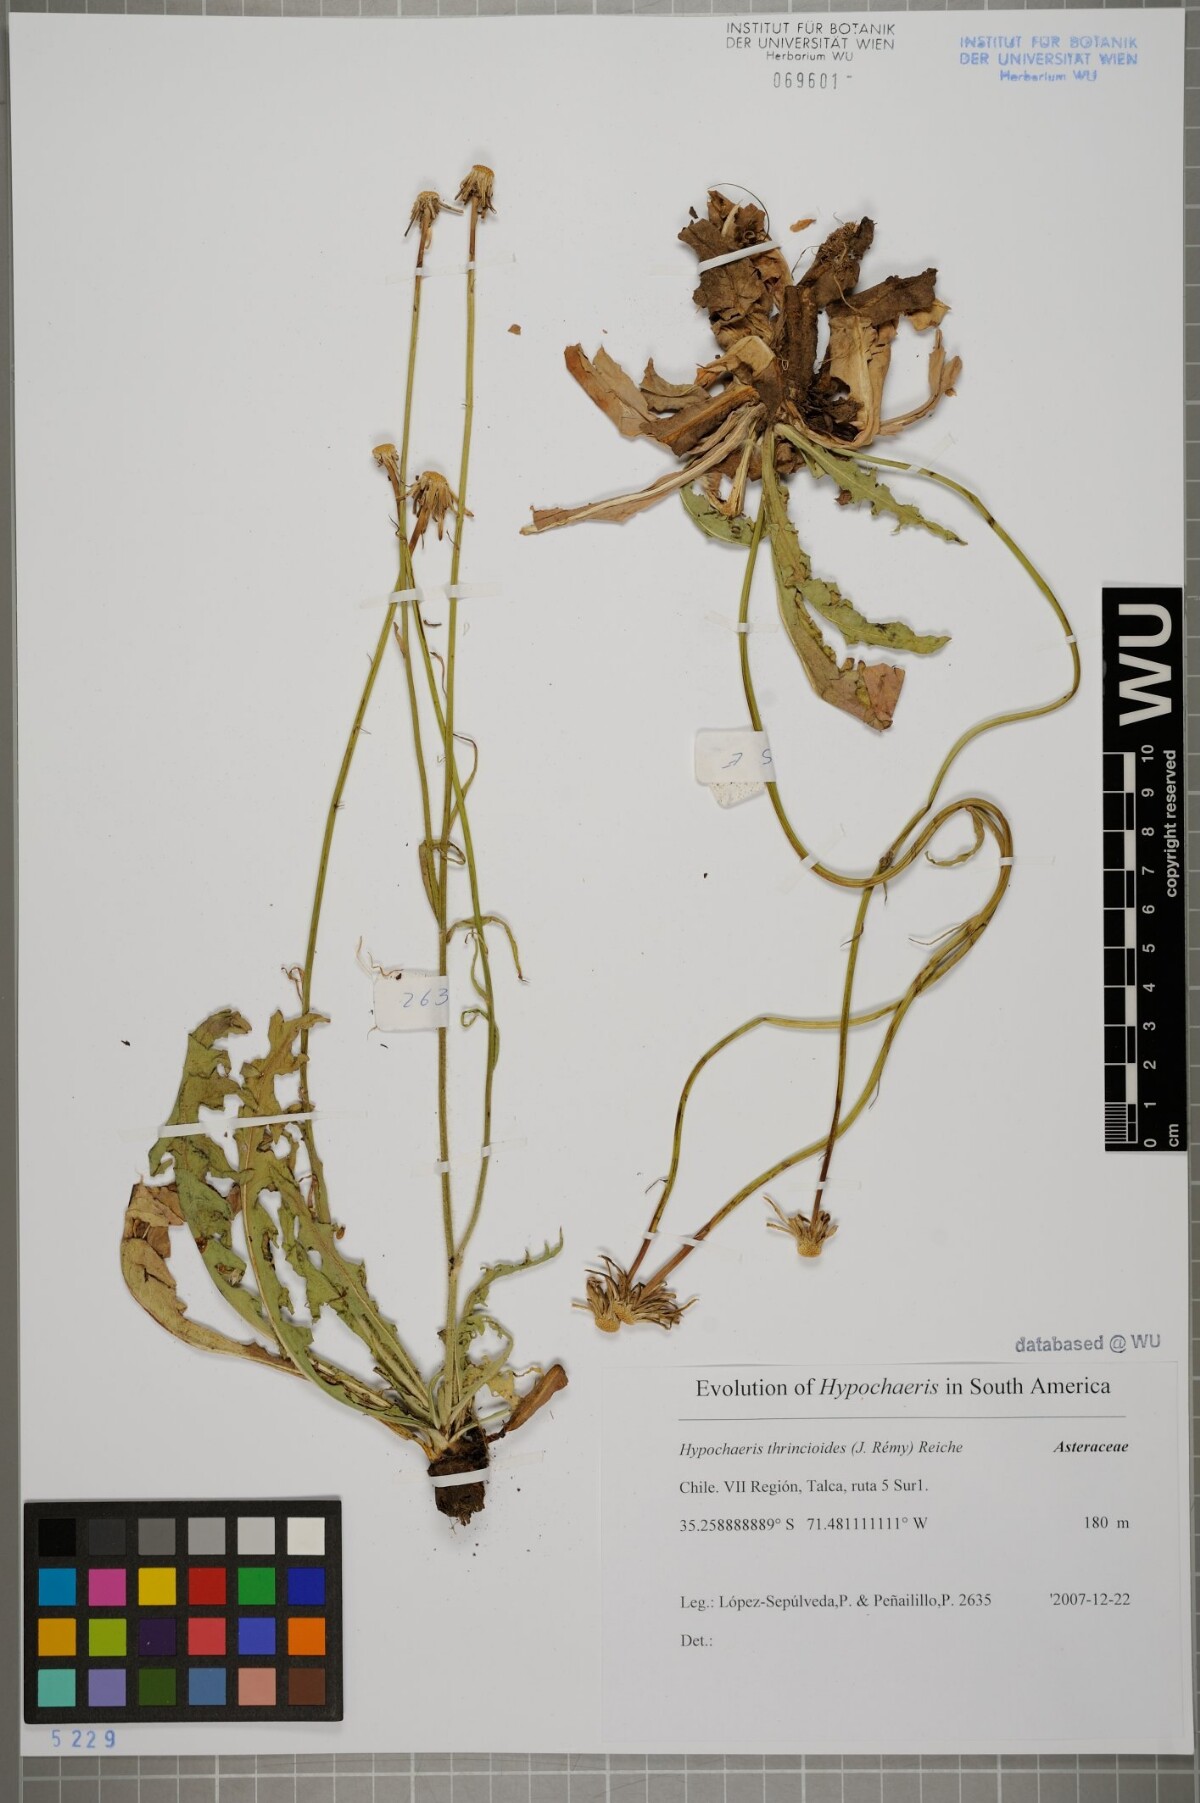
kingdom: Plantae
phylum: Tracheophyta
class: Magnoliopsida
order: Asterales
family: Asteraceae
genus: Hypochaeris
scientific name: Hypochaeris apargioides
